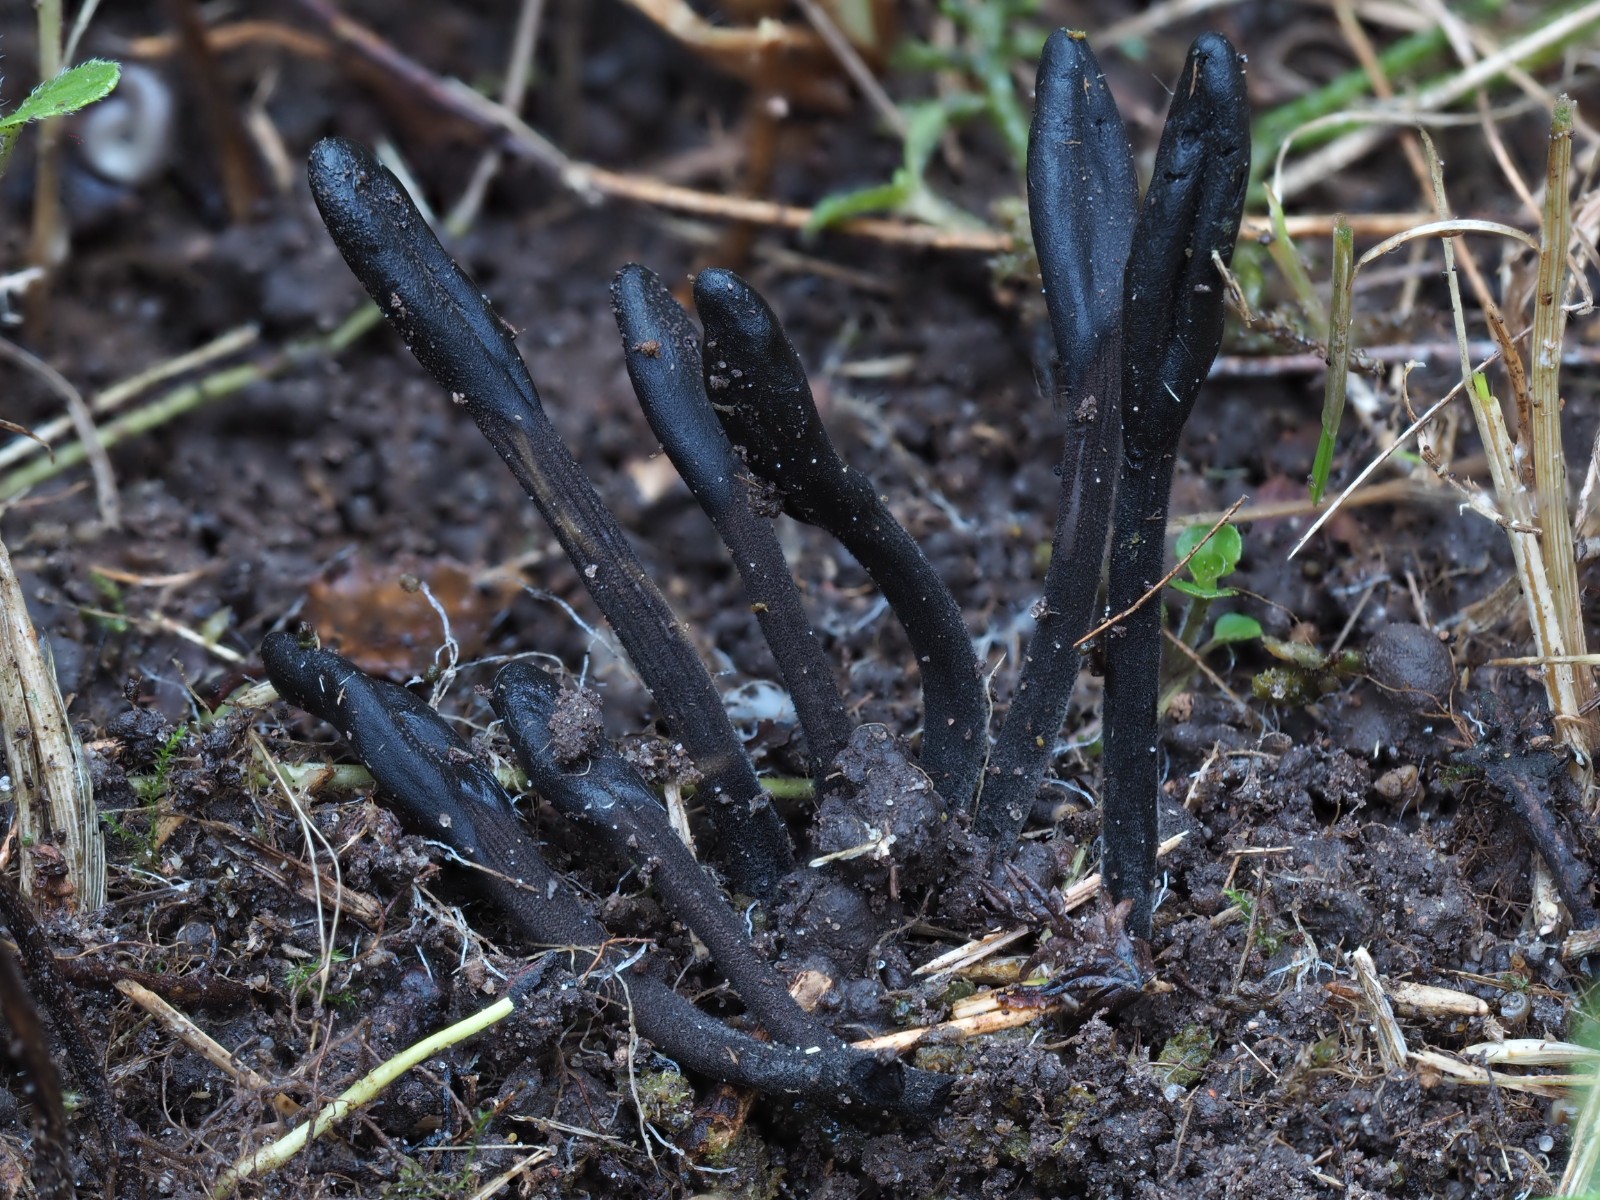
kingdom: Fungi
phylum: Ascomycota
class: Geoglossomycetes
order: Geoglossales
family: Geoglossaceae
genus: Trichoglossum
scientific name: Trichoglossum variabile
